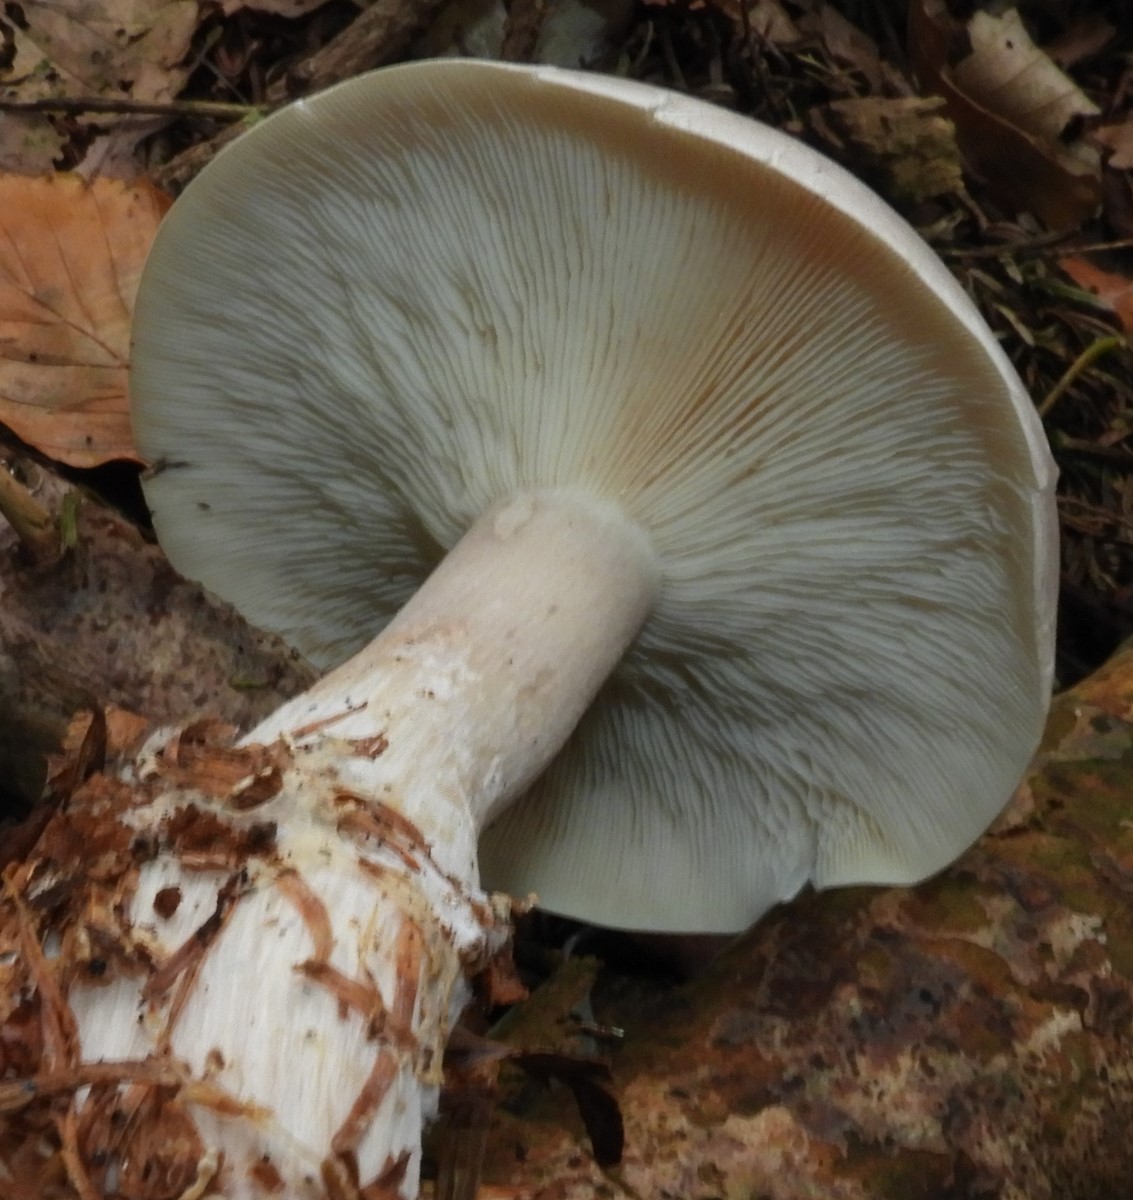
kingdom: Fungi
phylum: Basidiomycota
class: Agaricomycetes
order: Agaricales
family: Tricholomataceae
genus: Clitocybe
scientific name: Clitocybe nebularis
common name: tåge-tragthat
